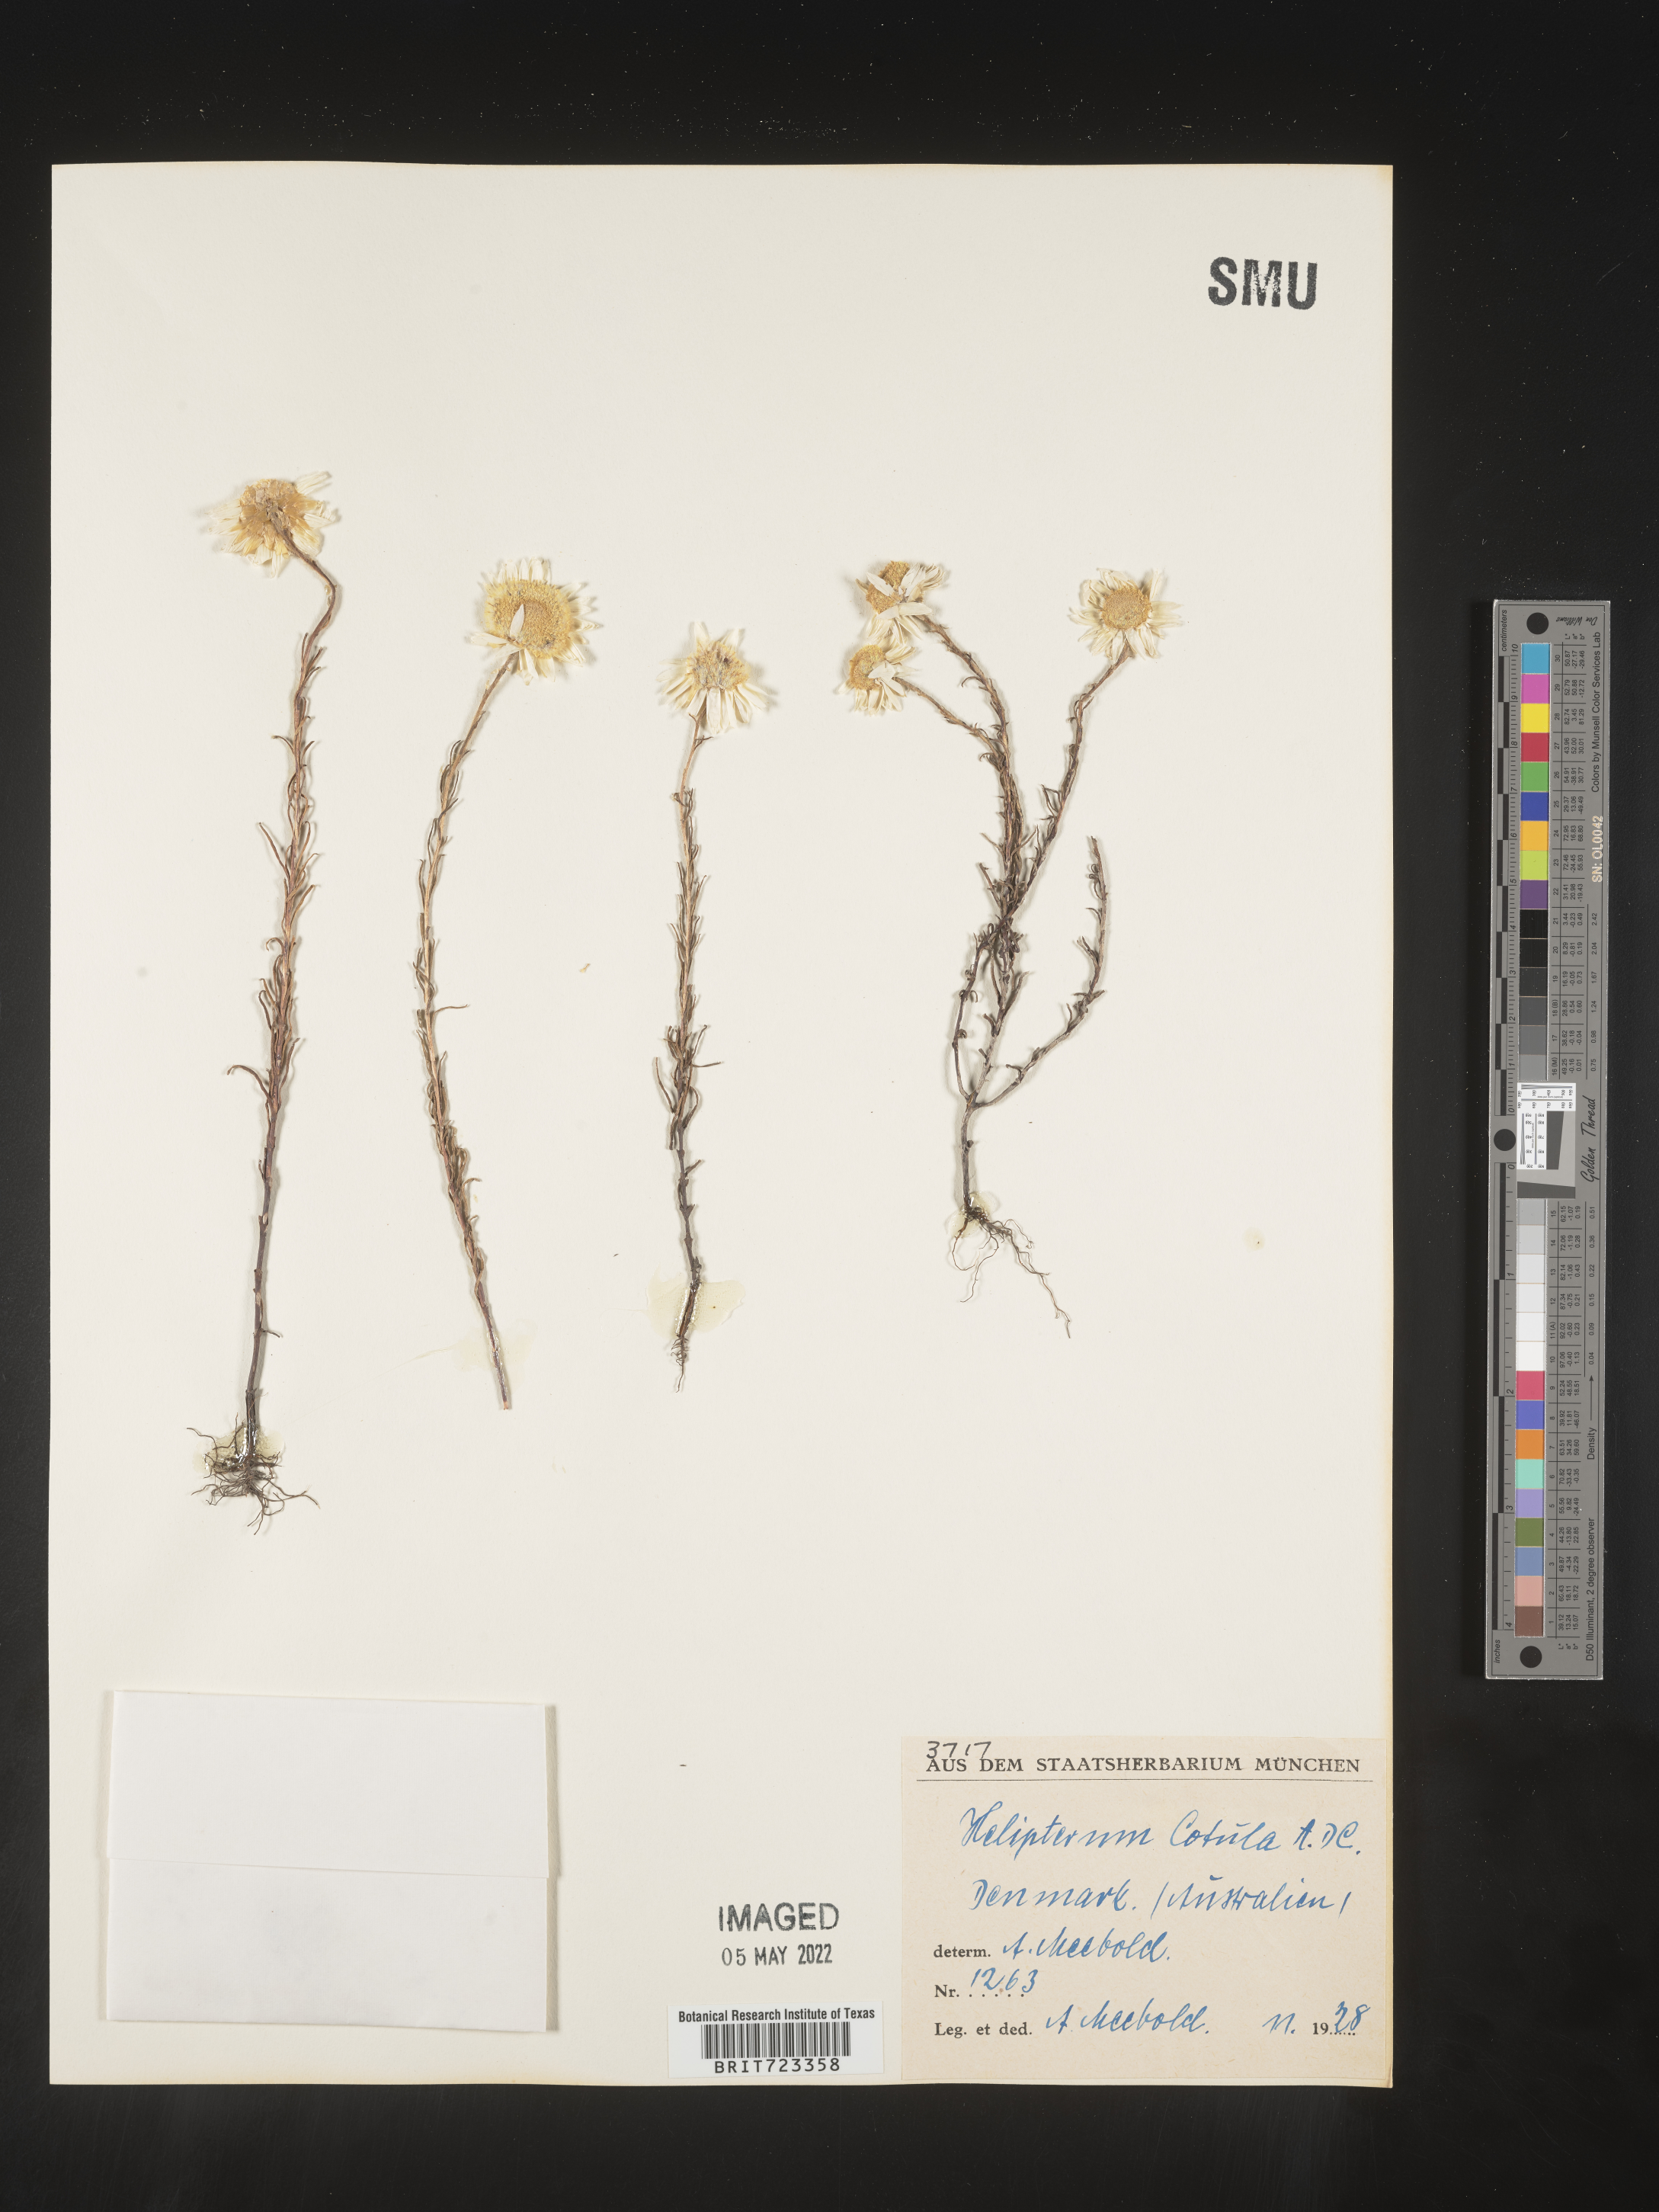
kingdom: Plantae
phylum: Tracheophyta
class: Magnoliopsida
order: Asterales
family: Asteraceae
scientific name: Asteraceae
